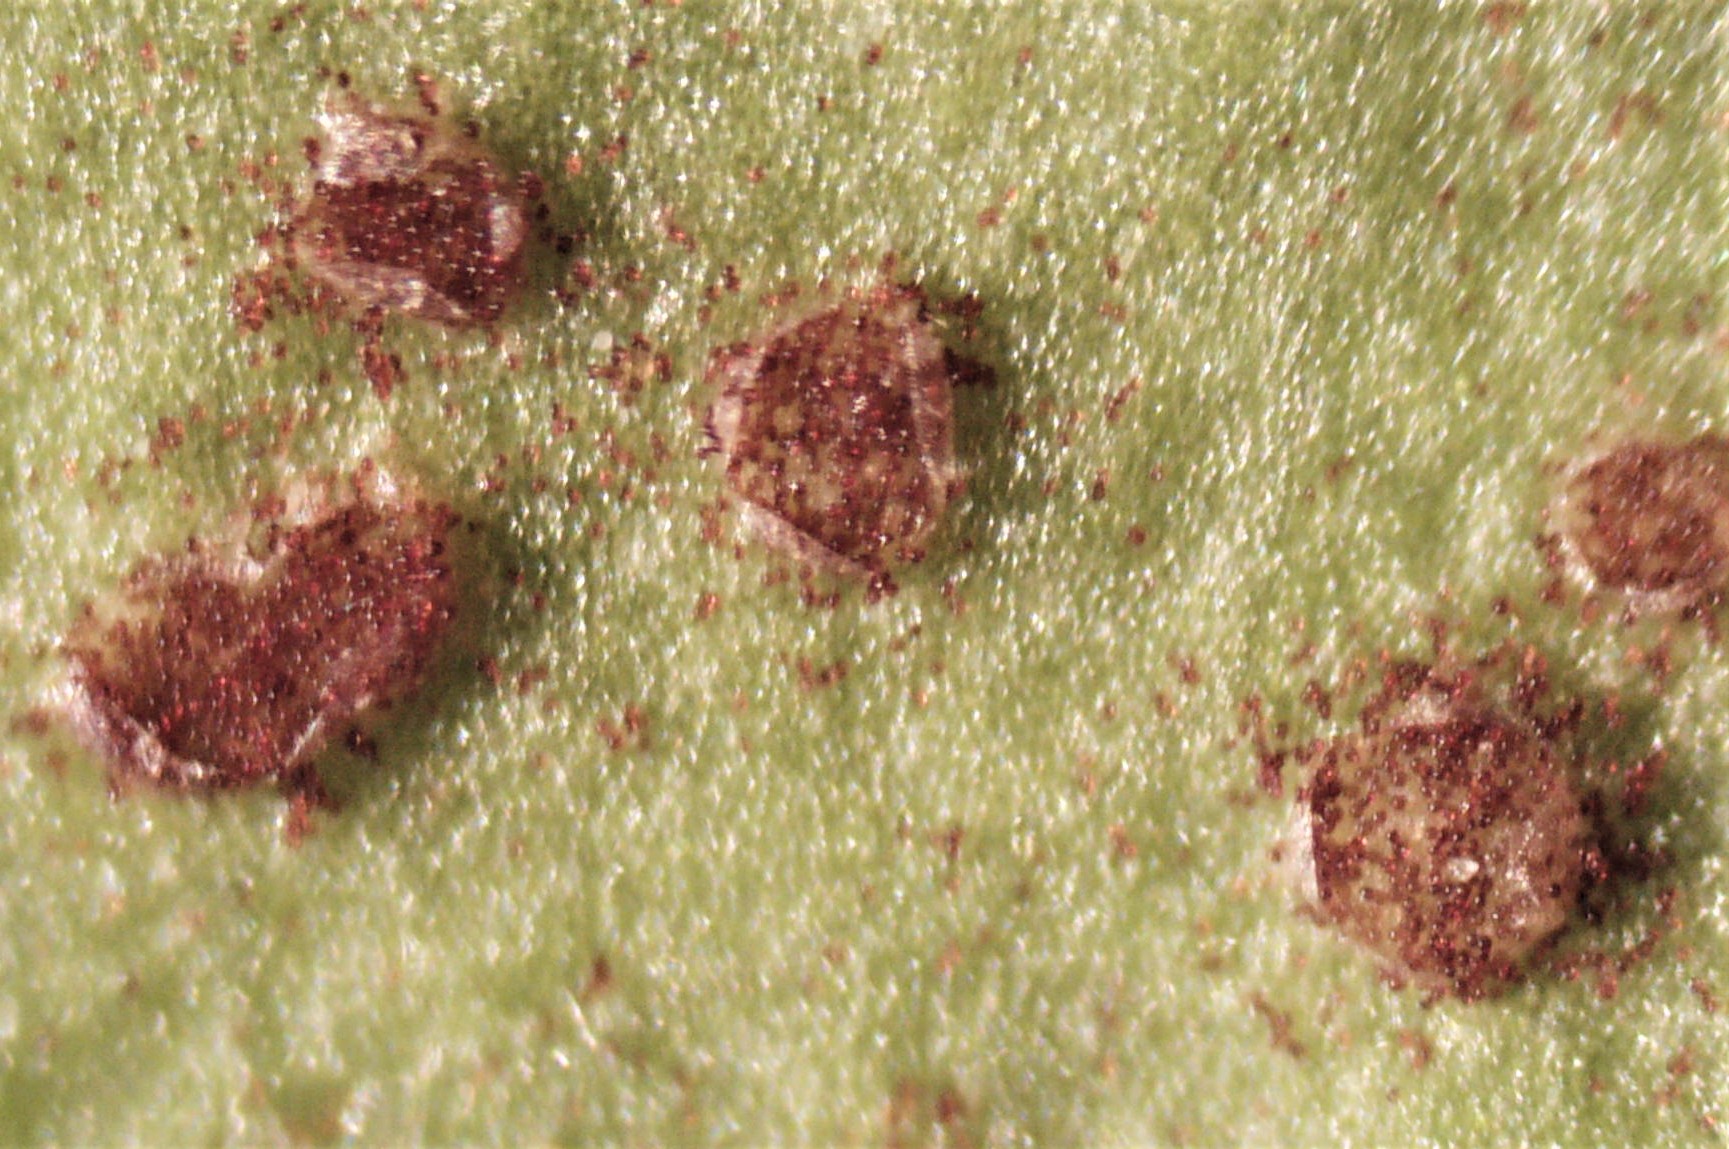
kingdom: Fungi
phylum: Basidiomycota
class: Pucciniomycetes
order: Pucciniales
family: Pucciniaceae
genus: Puccinia
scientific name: Puccinia hieracii
